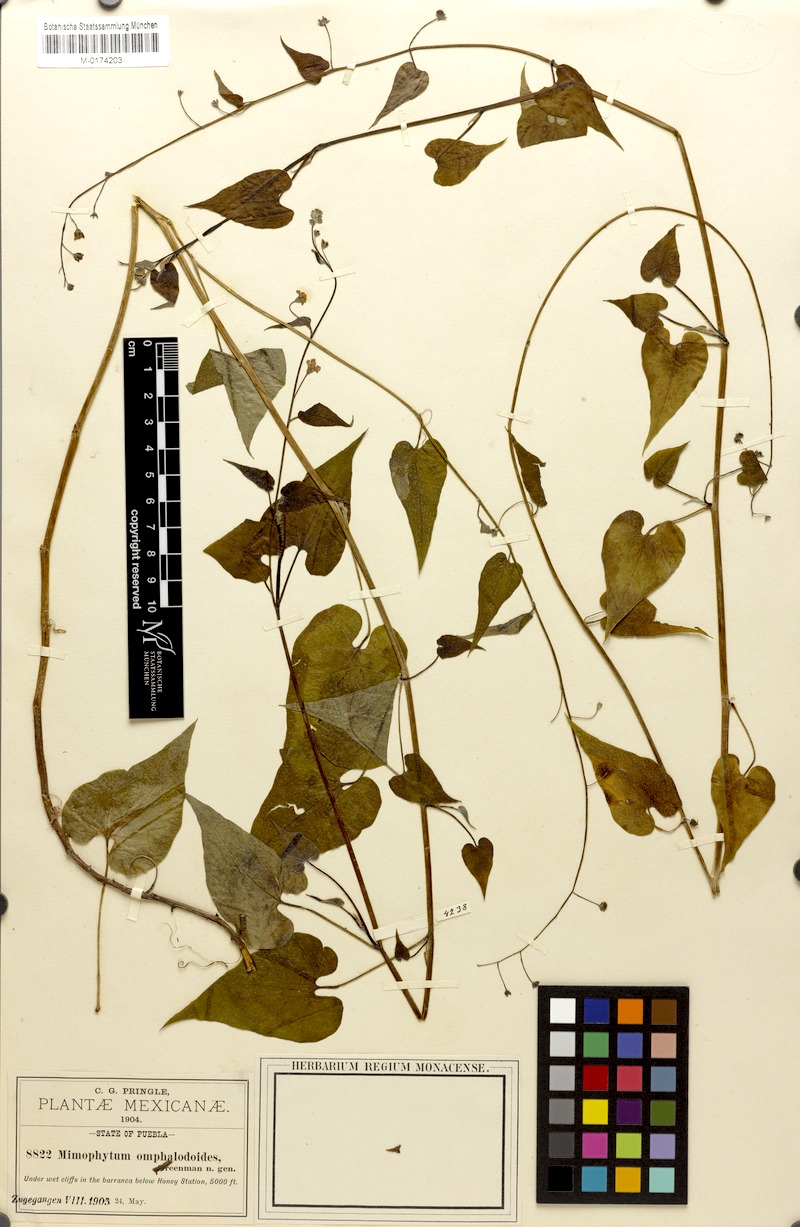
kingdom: Plantae
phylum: Tracheophyta
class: Magnoliopsida
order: Boraginales
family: Boraginaceae
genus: Mimophytum
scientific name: Mimophytum omphalodoides
